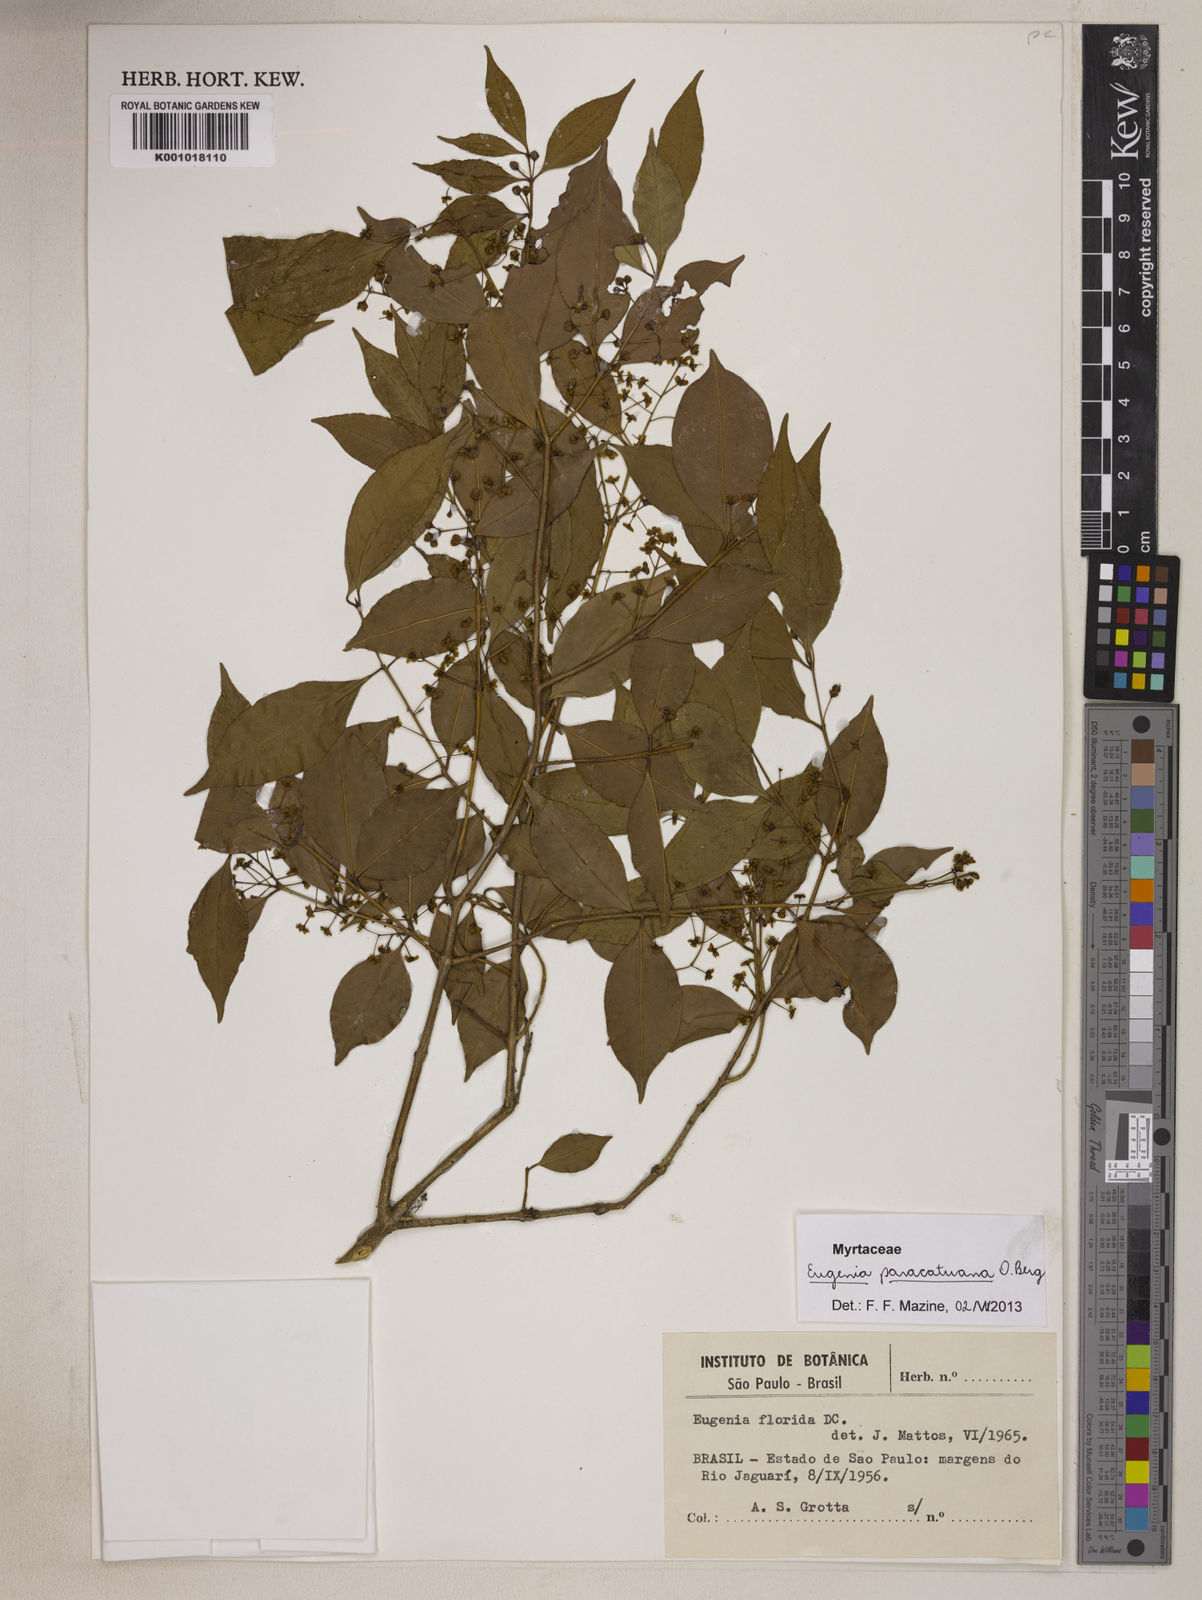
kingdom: Plantae
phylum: Tracheophyta
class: Magnoliopsida
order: Myrtales
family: Myrtaceae
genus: Eugenia
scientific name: Eugenia moraviana
